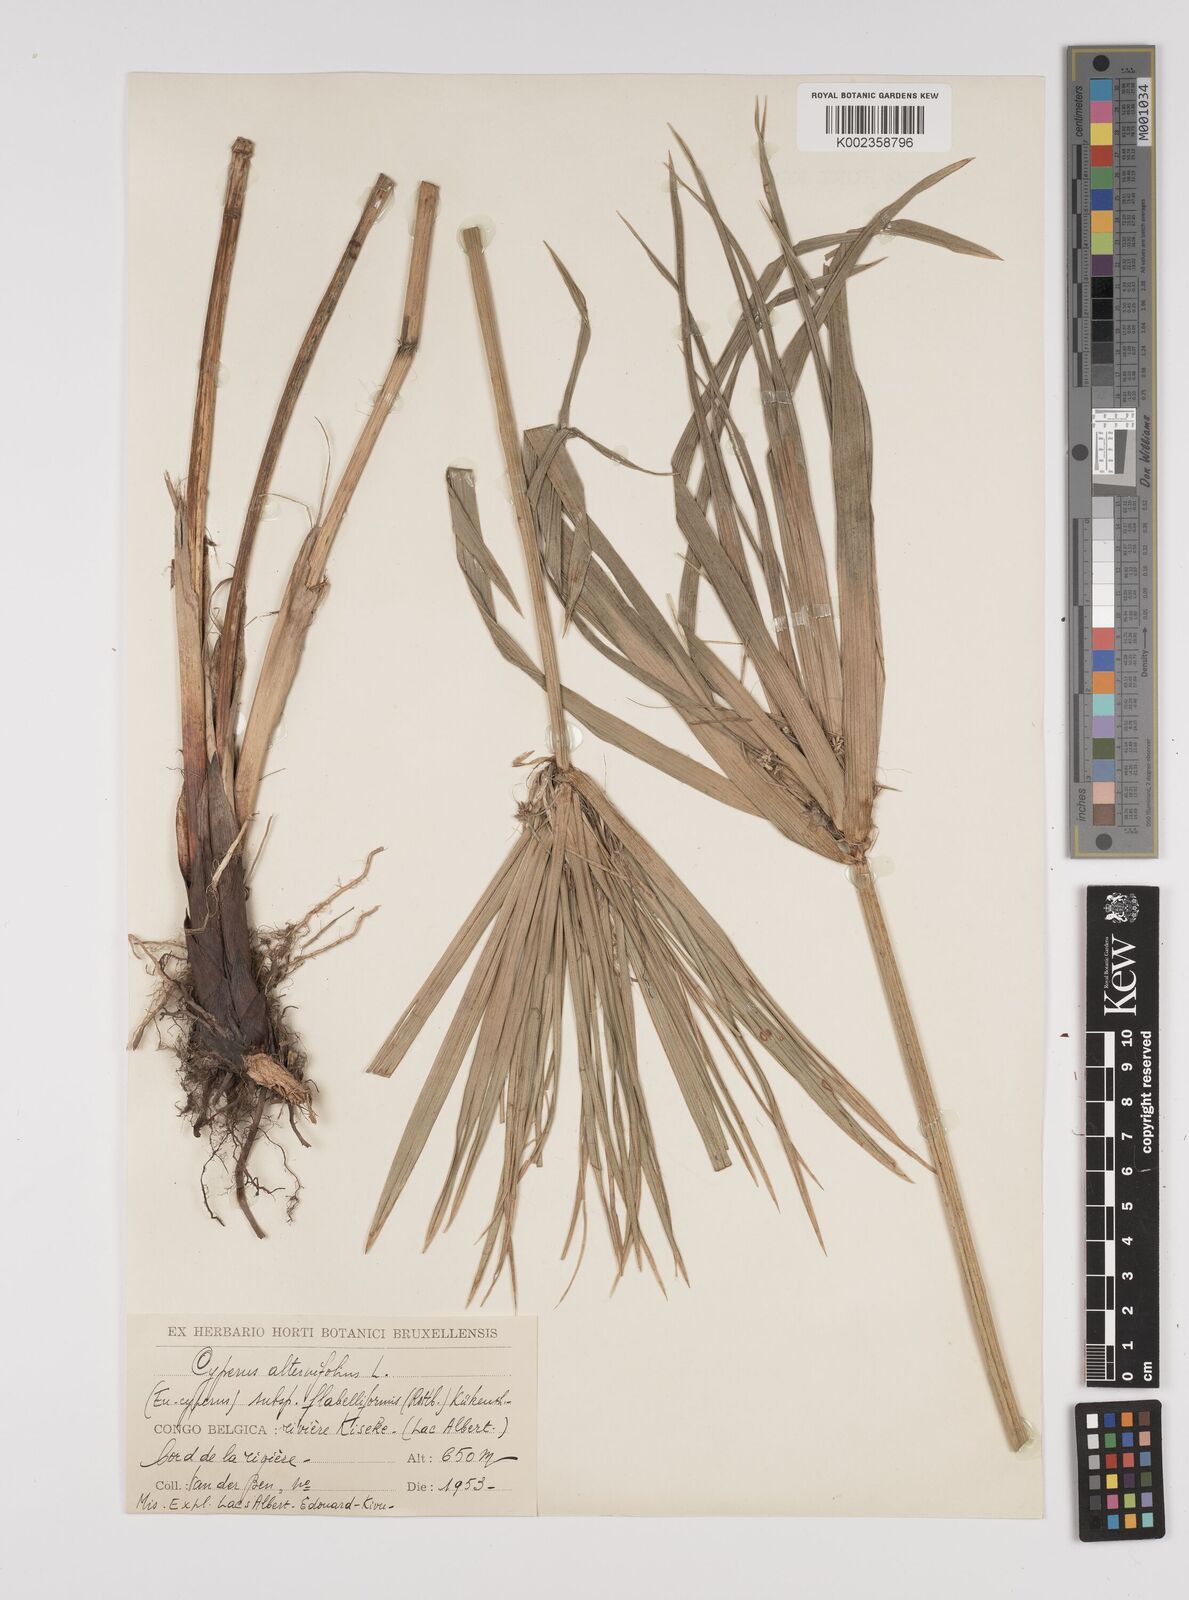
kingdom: Plantae
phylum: Tracheophyta
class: Liliopsida
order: Poales
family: Cyperaceae
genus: Cyperus
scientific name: Cyperus alternifolius
